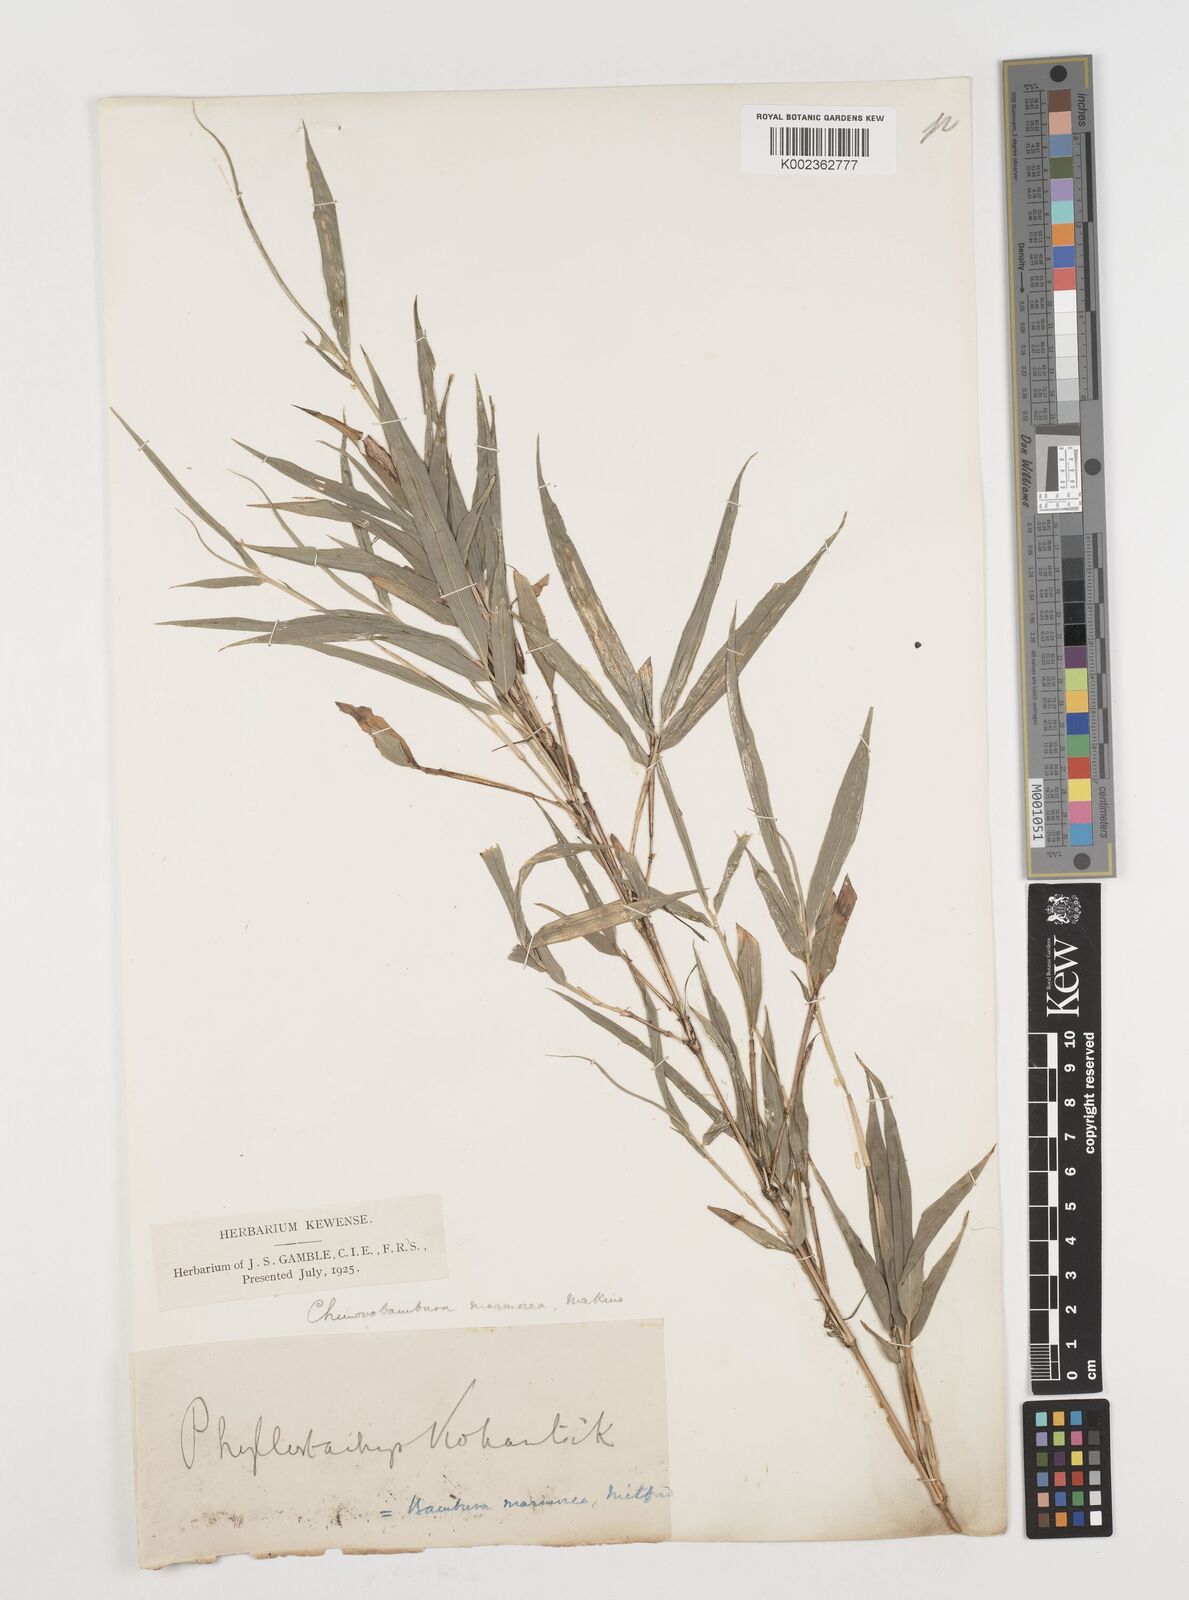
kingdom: Plantae
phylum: Tracheophyta
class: Liliopsida
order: Poales
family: Poaceae
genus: Chimonobambusa
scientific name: Chimonobambusa marmorea
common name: Marbled bamboo
